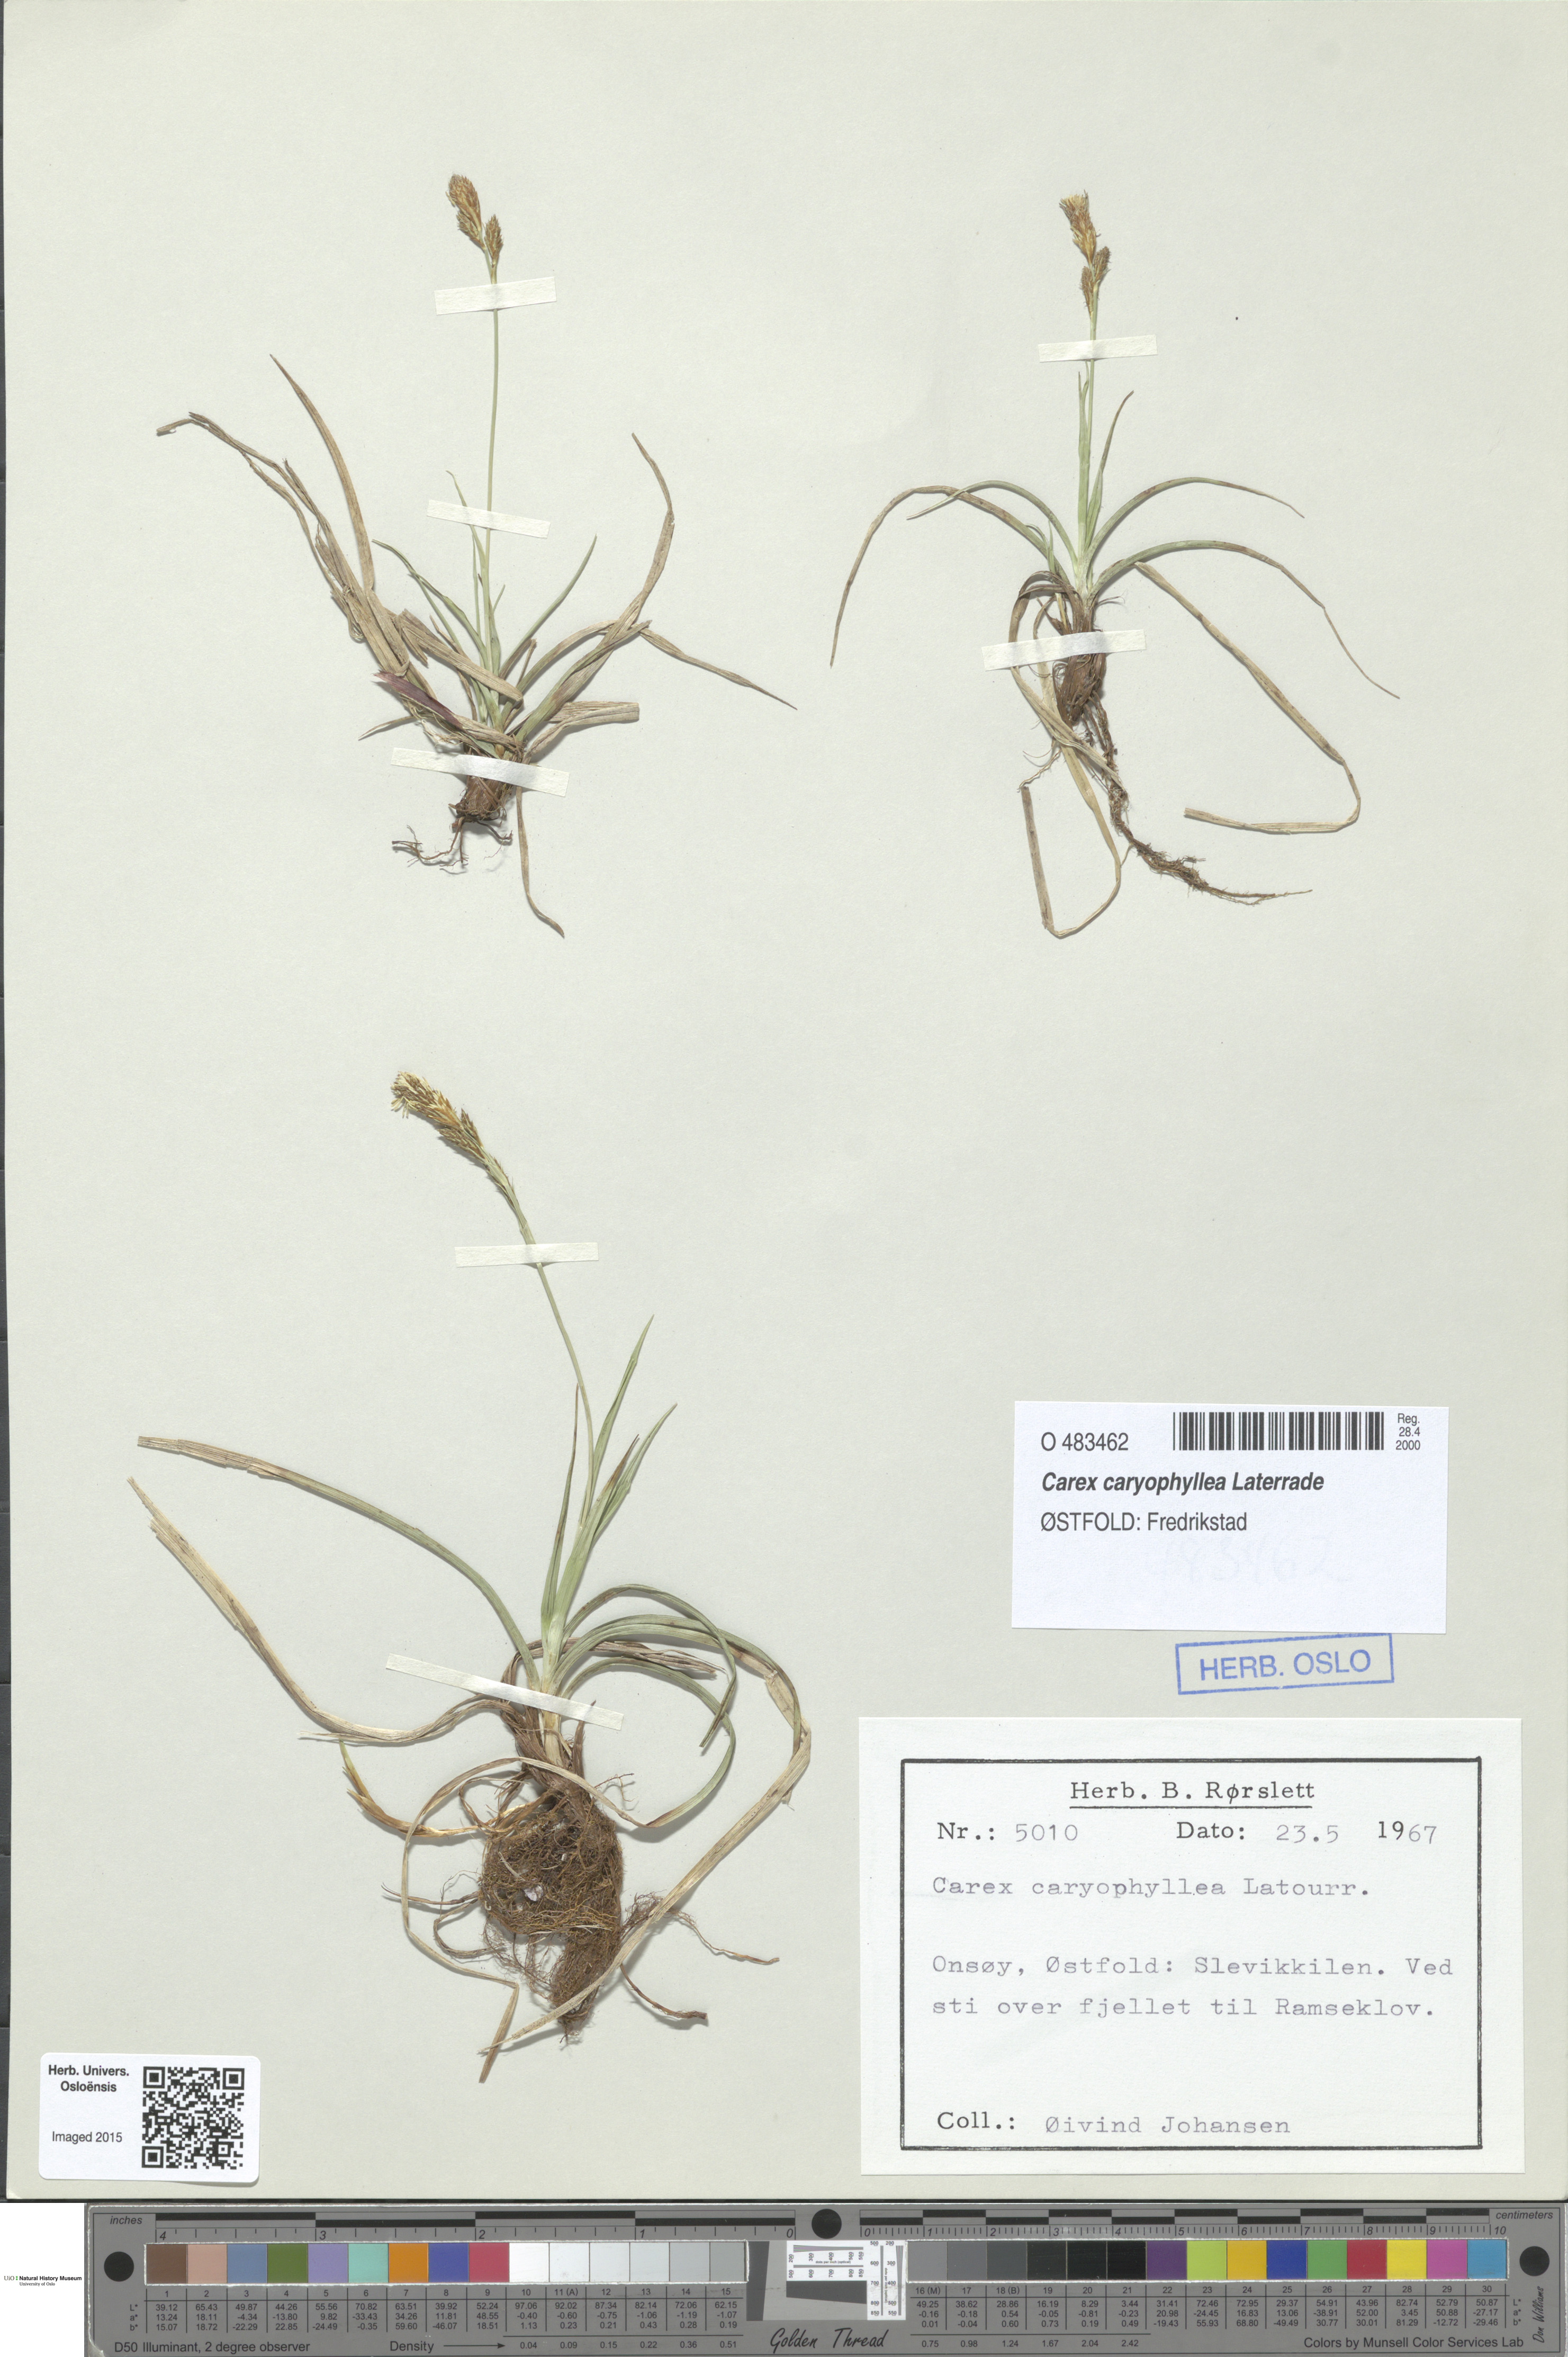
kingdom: Plantae
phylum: Tracheophyta
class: Liliopsida
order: Poales
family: Cyperaceae
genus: Carex
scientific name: Carex caryophyllea
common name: Spring sedge
